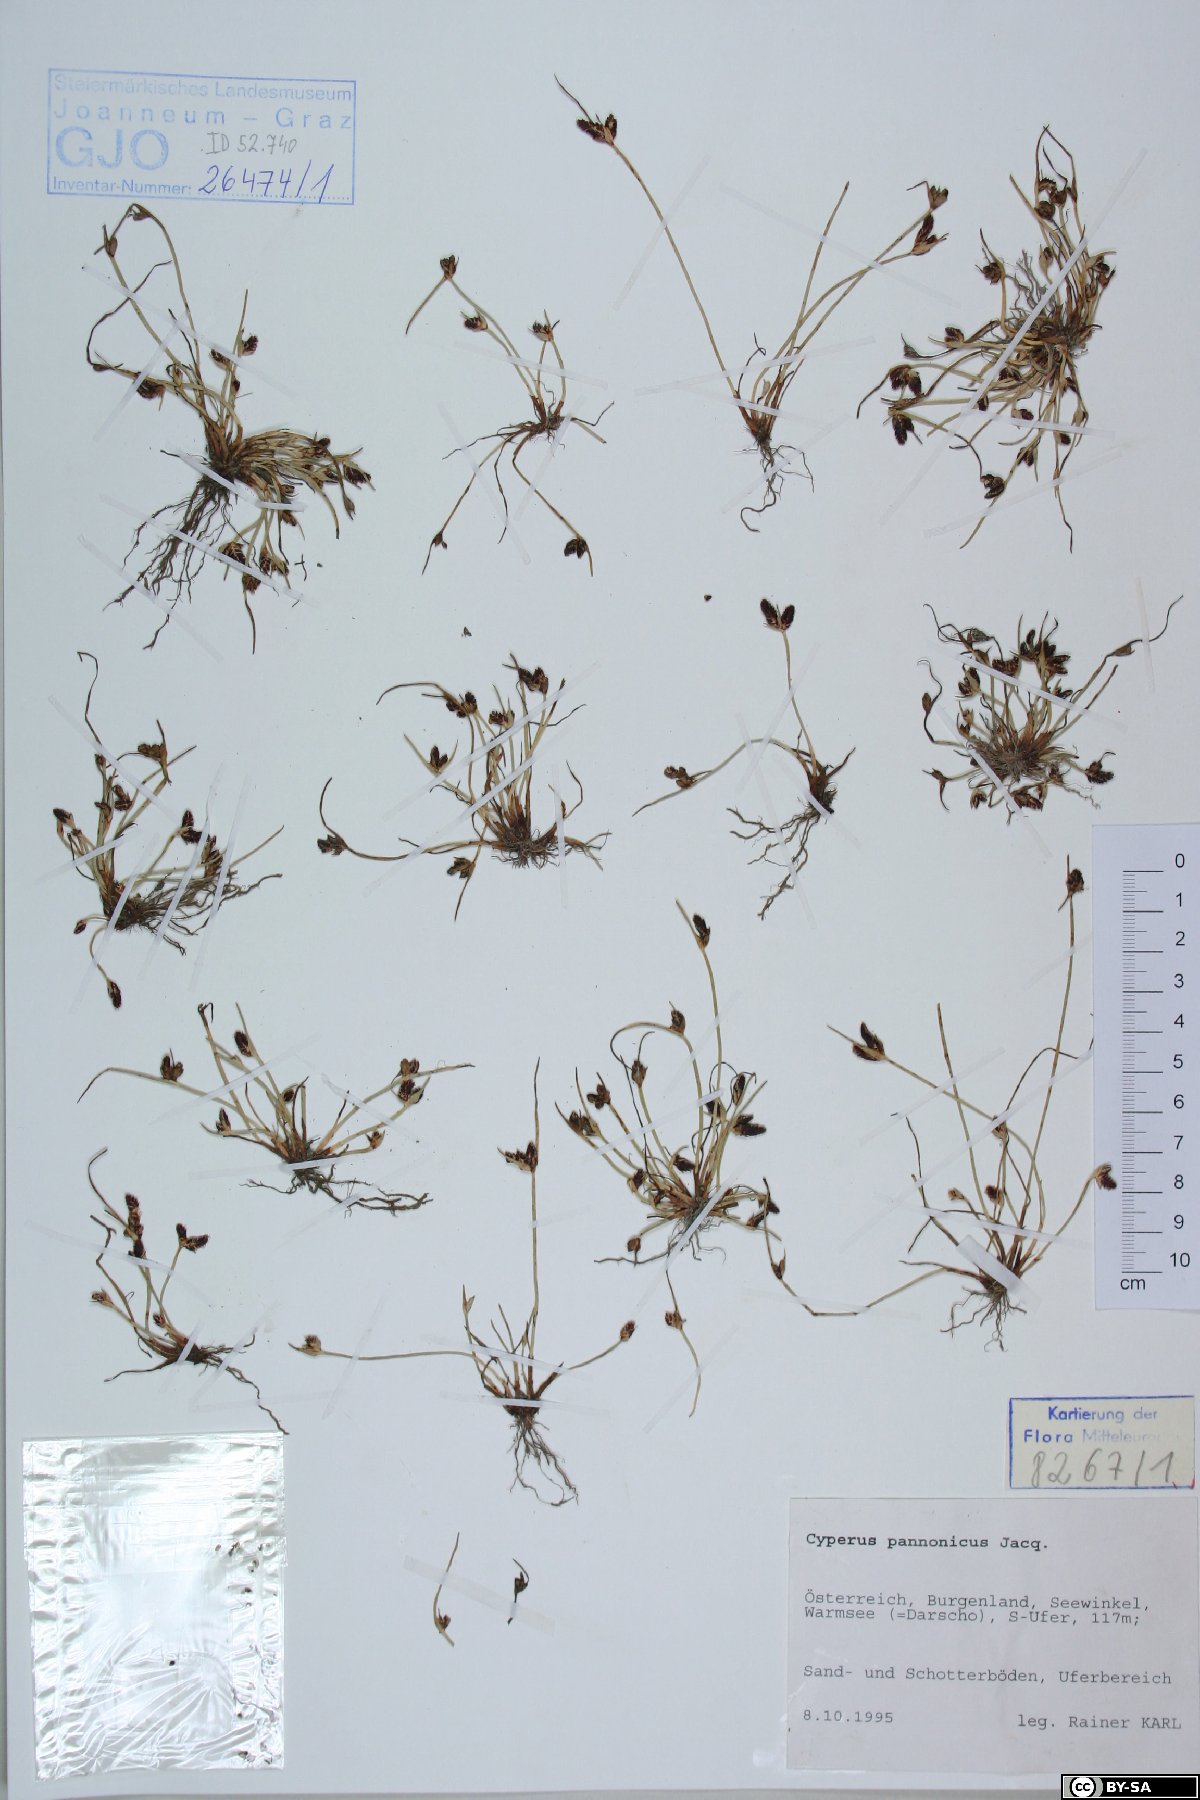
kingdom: Plantae
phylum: Tracheophyta
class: Liliopsida
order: Poales
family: Cyperaceae
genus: Cyperus
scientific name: Cyperus pannonicus
